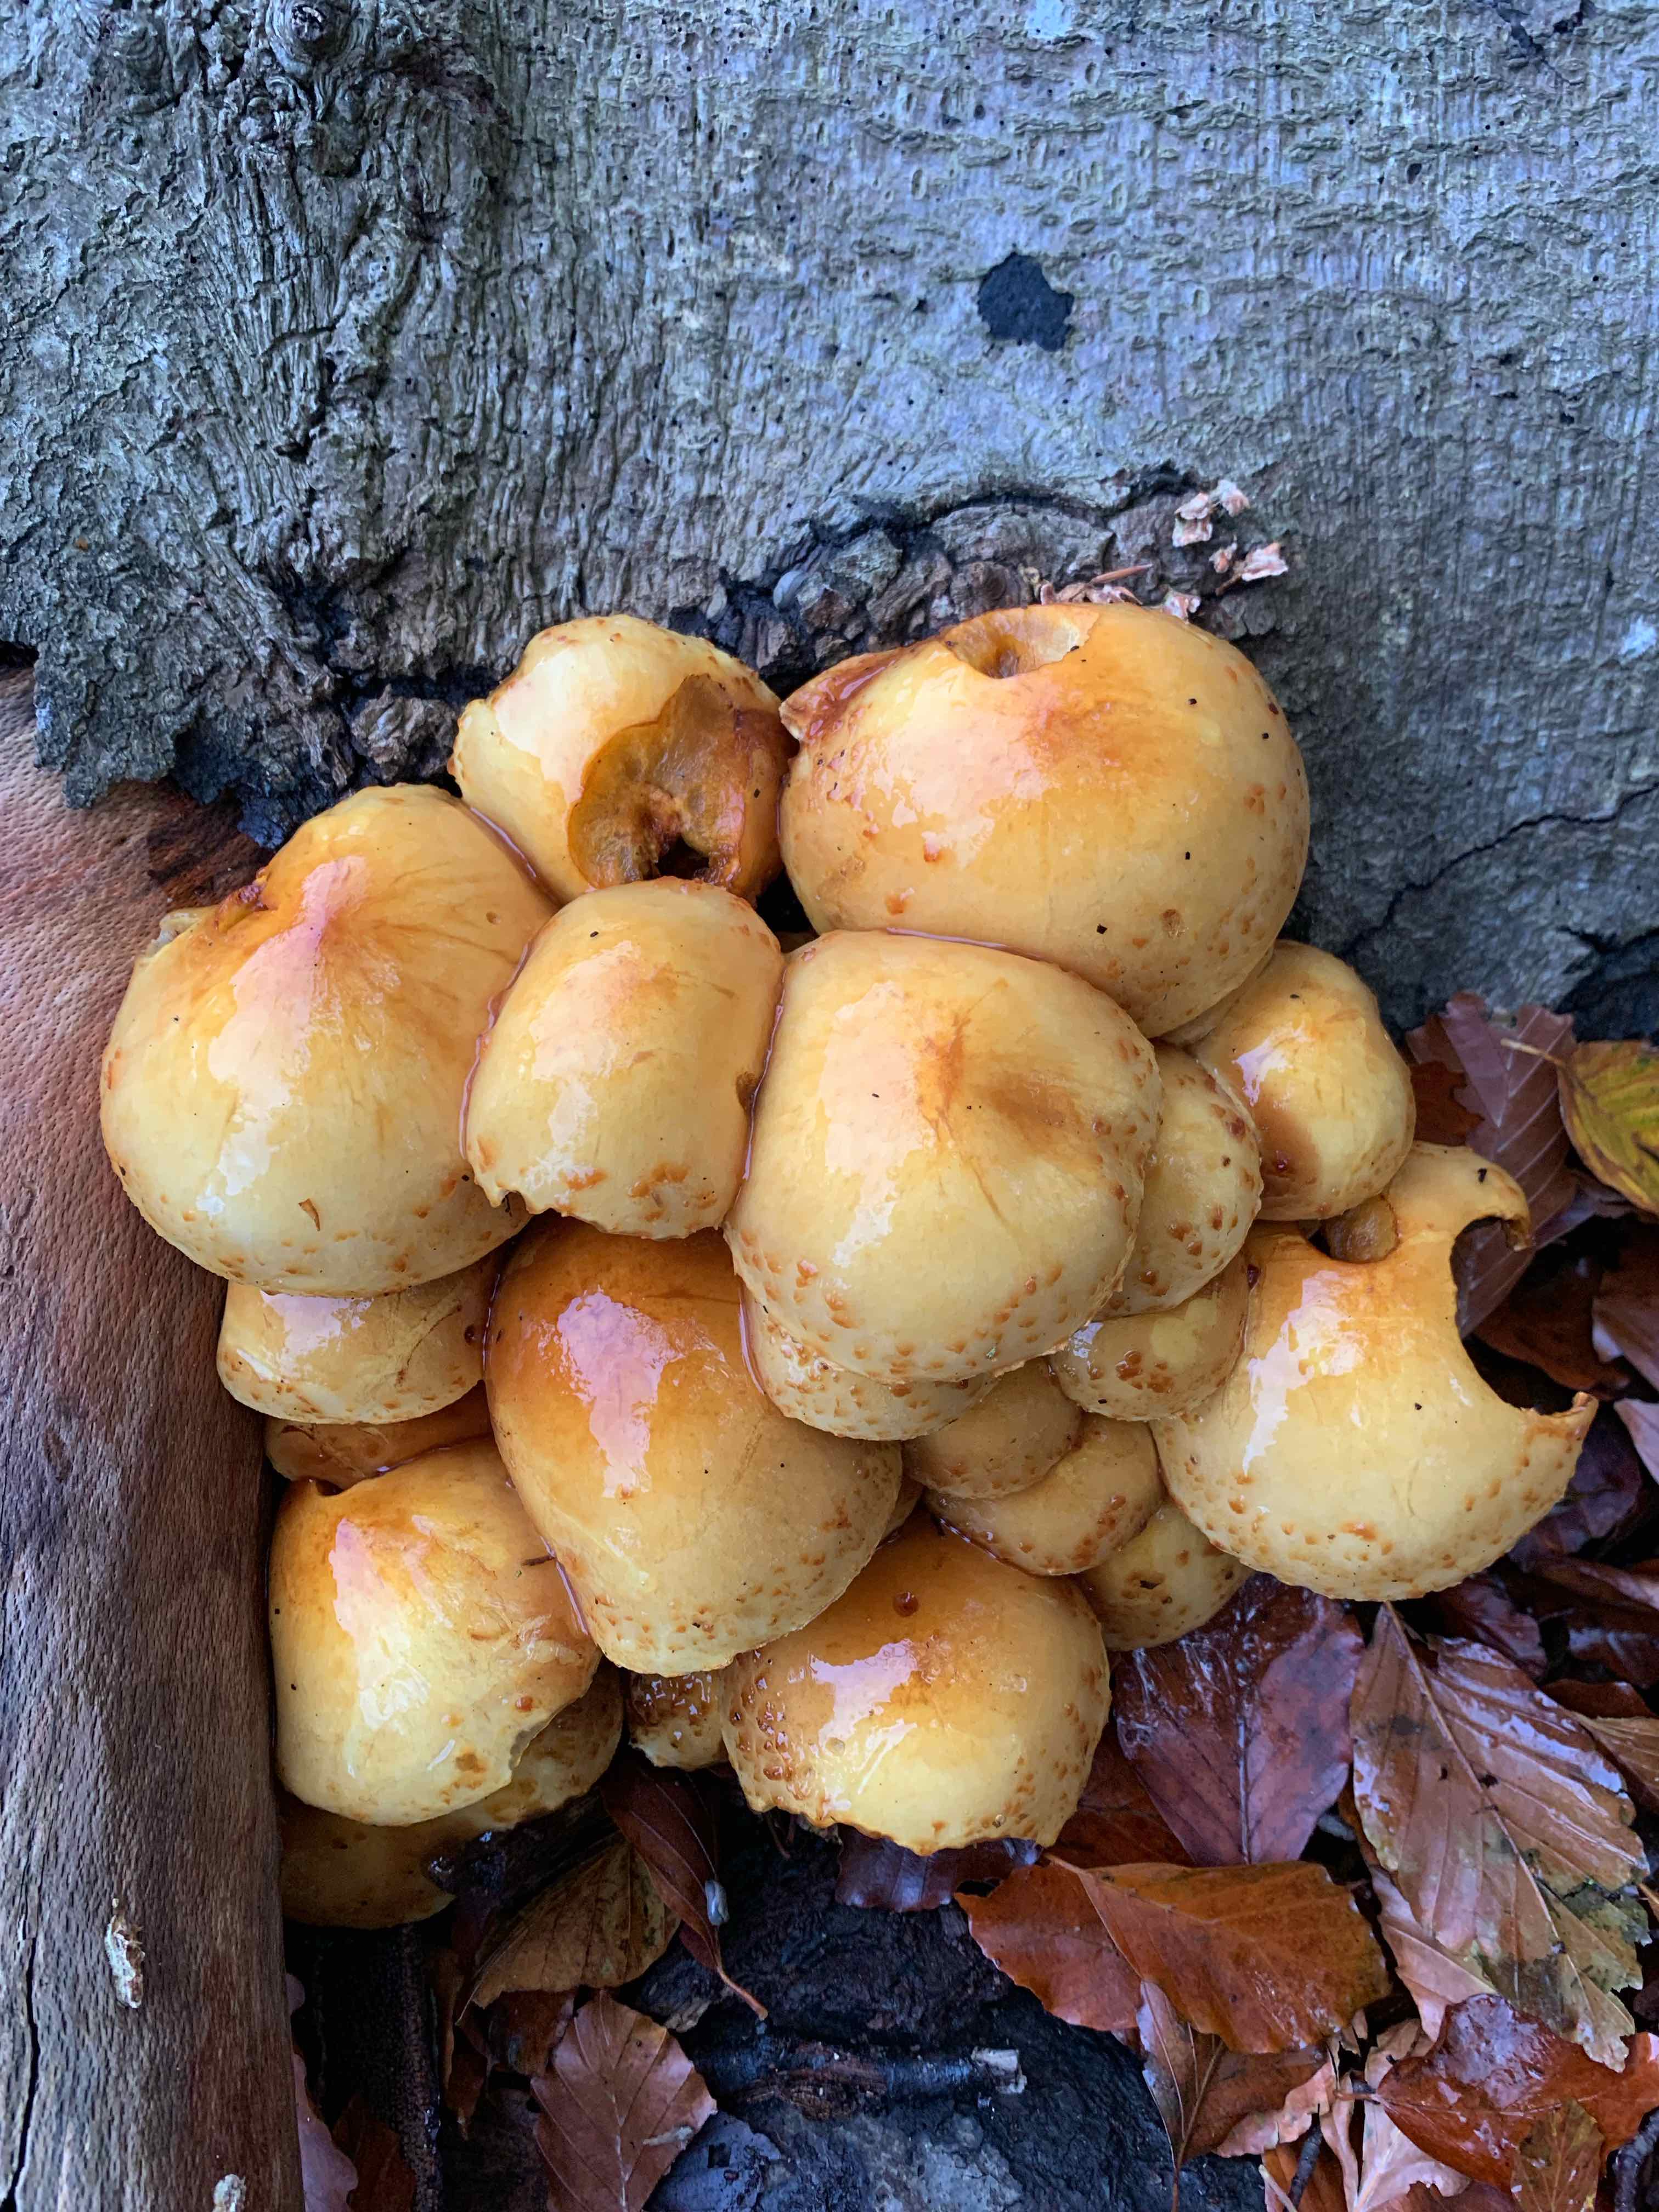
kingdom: Fungi
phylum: Basidiomycota
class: Agaricomycetes
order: Agaricales
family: Strophariaceae
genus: Pholiota
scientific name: Pholiota adiposa
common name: højtsiddende skælhat
